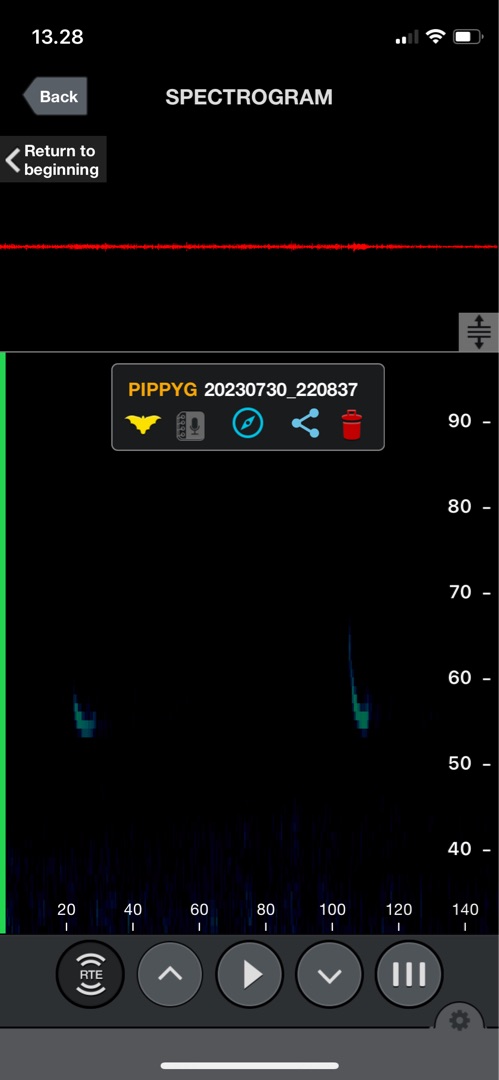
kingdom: Animalia
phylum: Chordata
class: Mammalia
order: Chiroptera
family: Vespertilionidae
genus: Pipistrellus
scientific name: Pipistrellus pygmaeus
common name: Dværgflagermus
